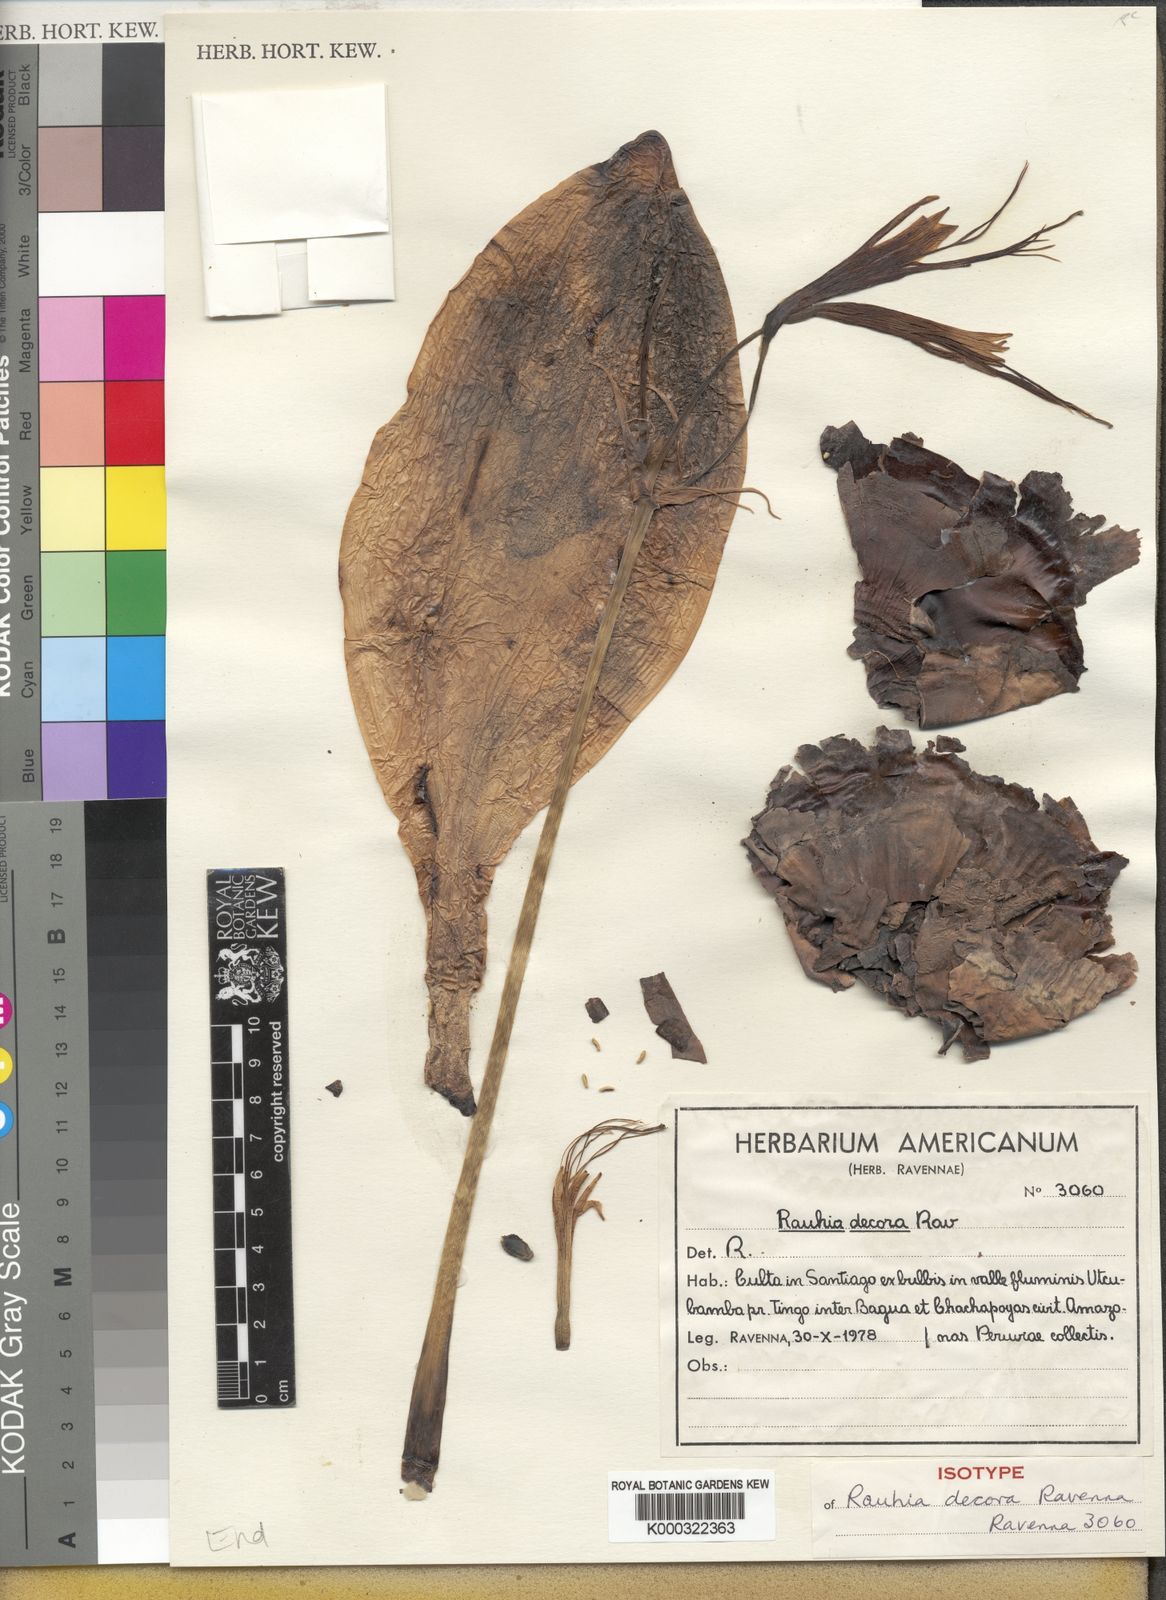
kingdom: Plantae
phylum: Tracheophyta
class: Liliopsida
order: Asparagales
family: Amaryllidaceae
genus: Rauhia
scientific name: Rauhia decora
